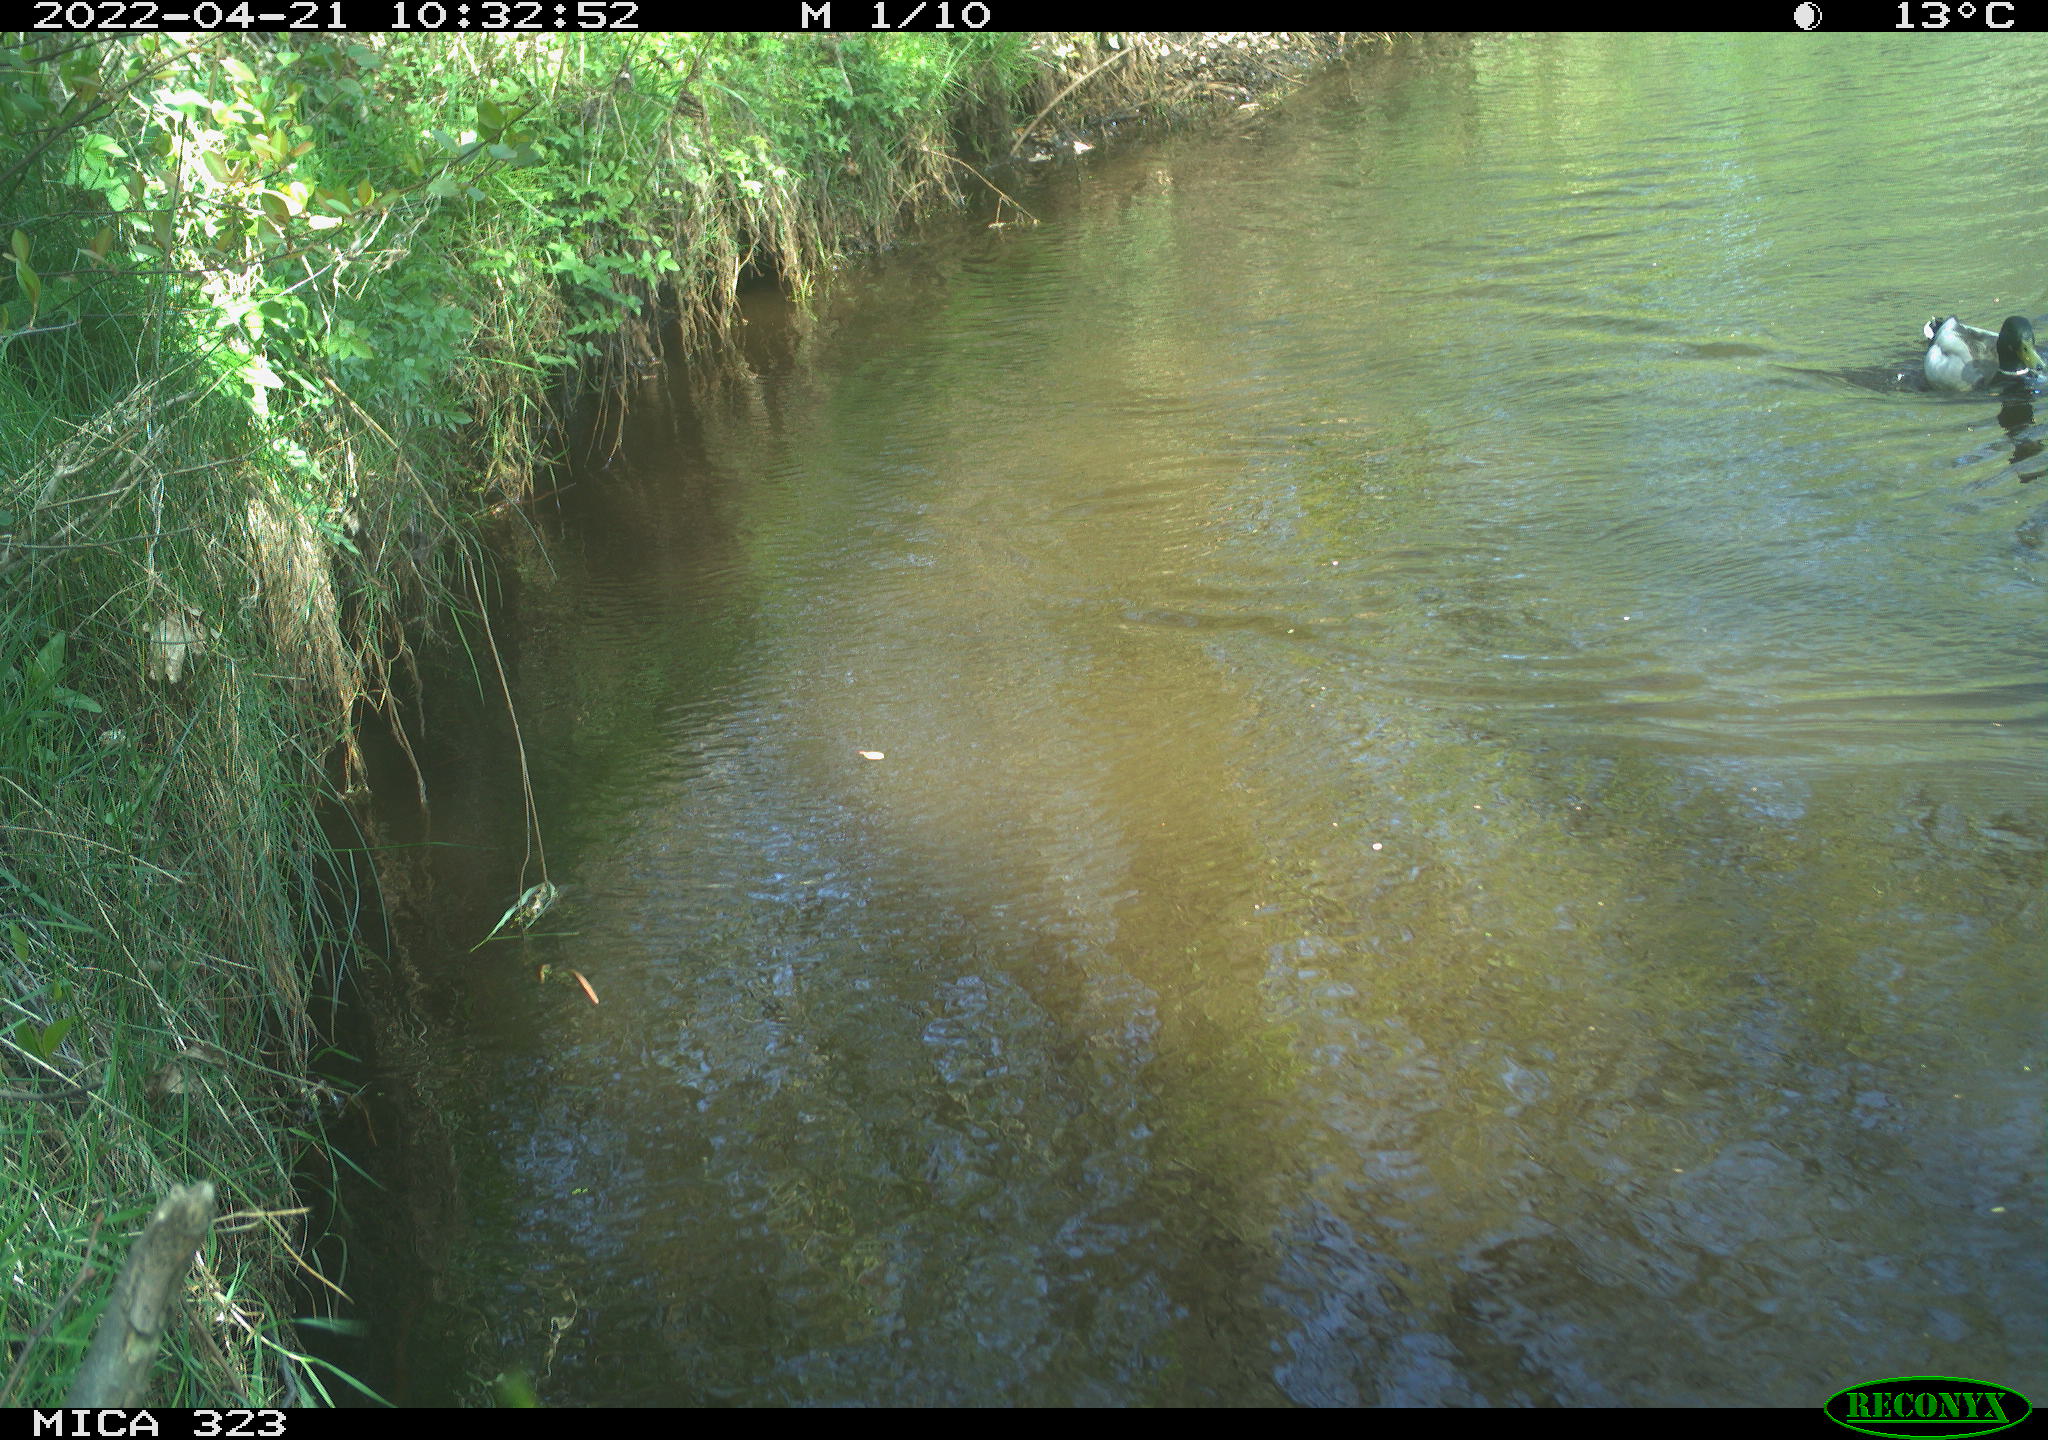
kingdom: Animalia
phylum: Chordata
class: Aves
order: Anseriformes
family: Anatidae
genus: Anas
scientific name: Anas
